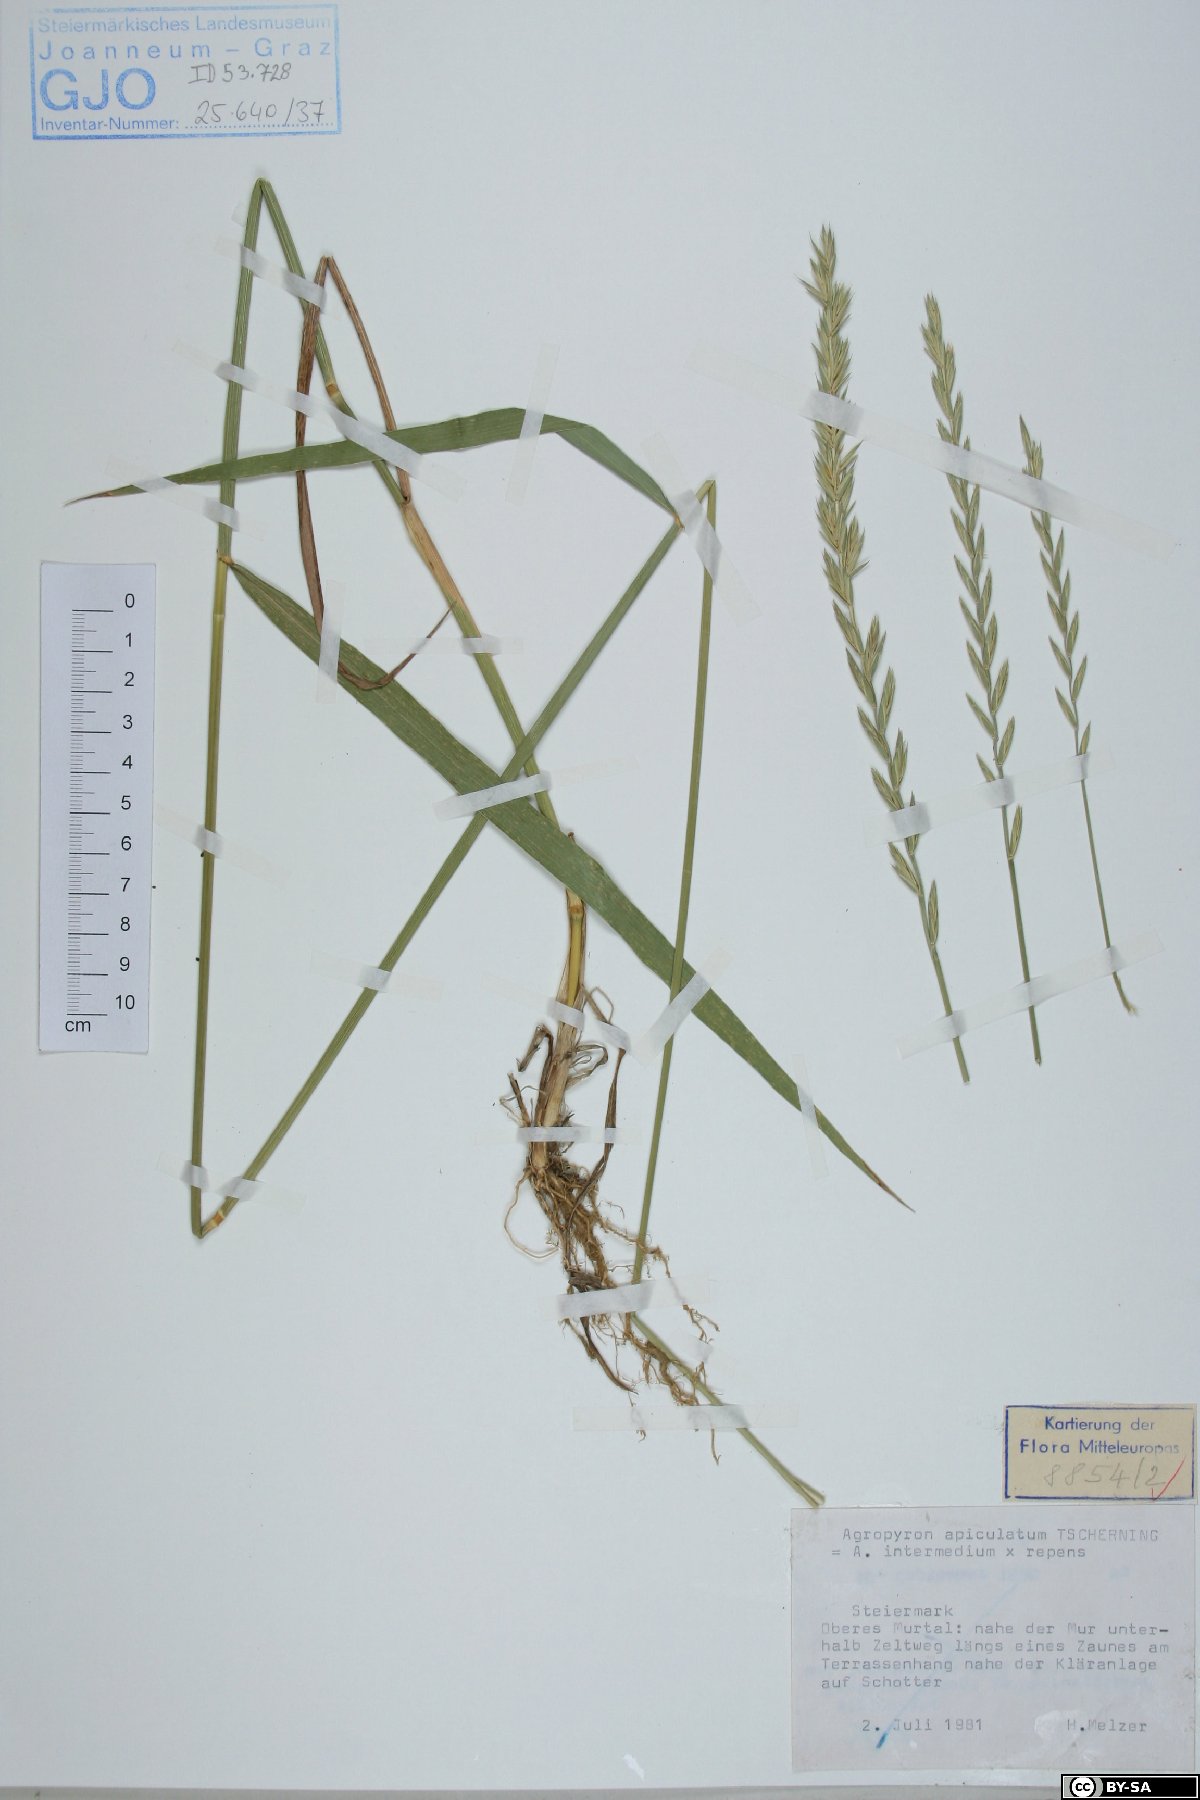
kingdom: Plantae
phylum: Tracheophyta
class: Liliopsida
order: Poales
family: Poaceae
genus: Elymus
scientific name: Elymus apiculatus
